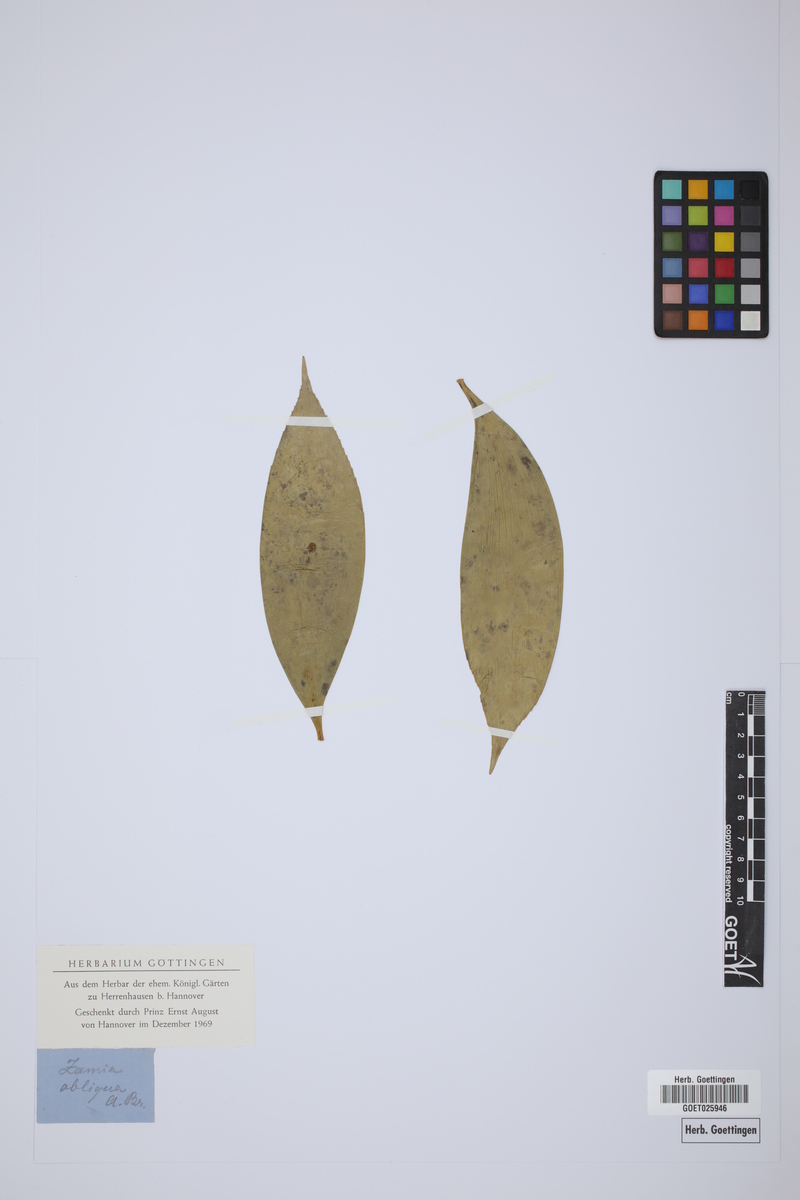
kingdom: Plantae
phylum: Tracheophyta
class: Cycadopsida
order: Cycadales
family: Zamiaceae
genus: Zamia
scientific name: Zamia obliqua
